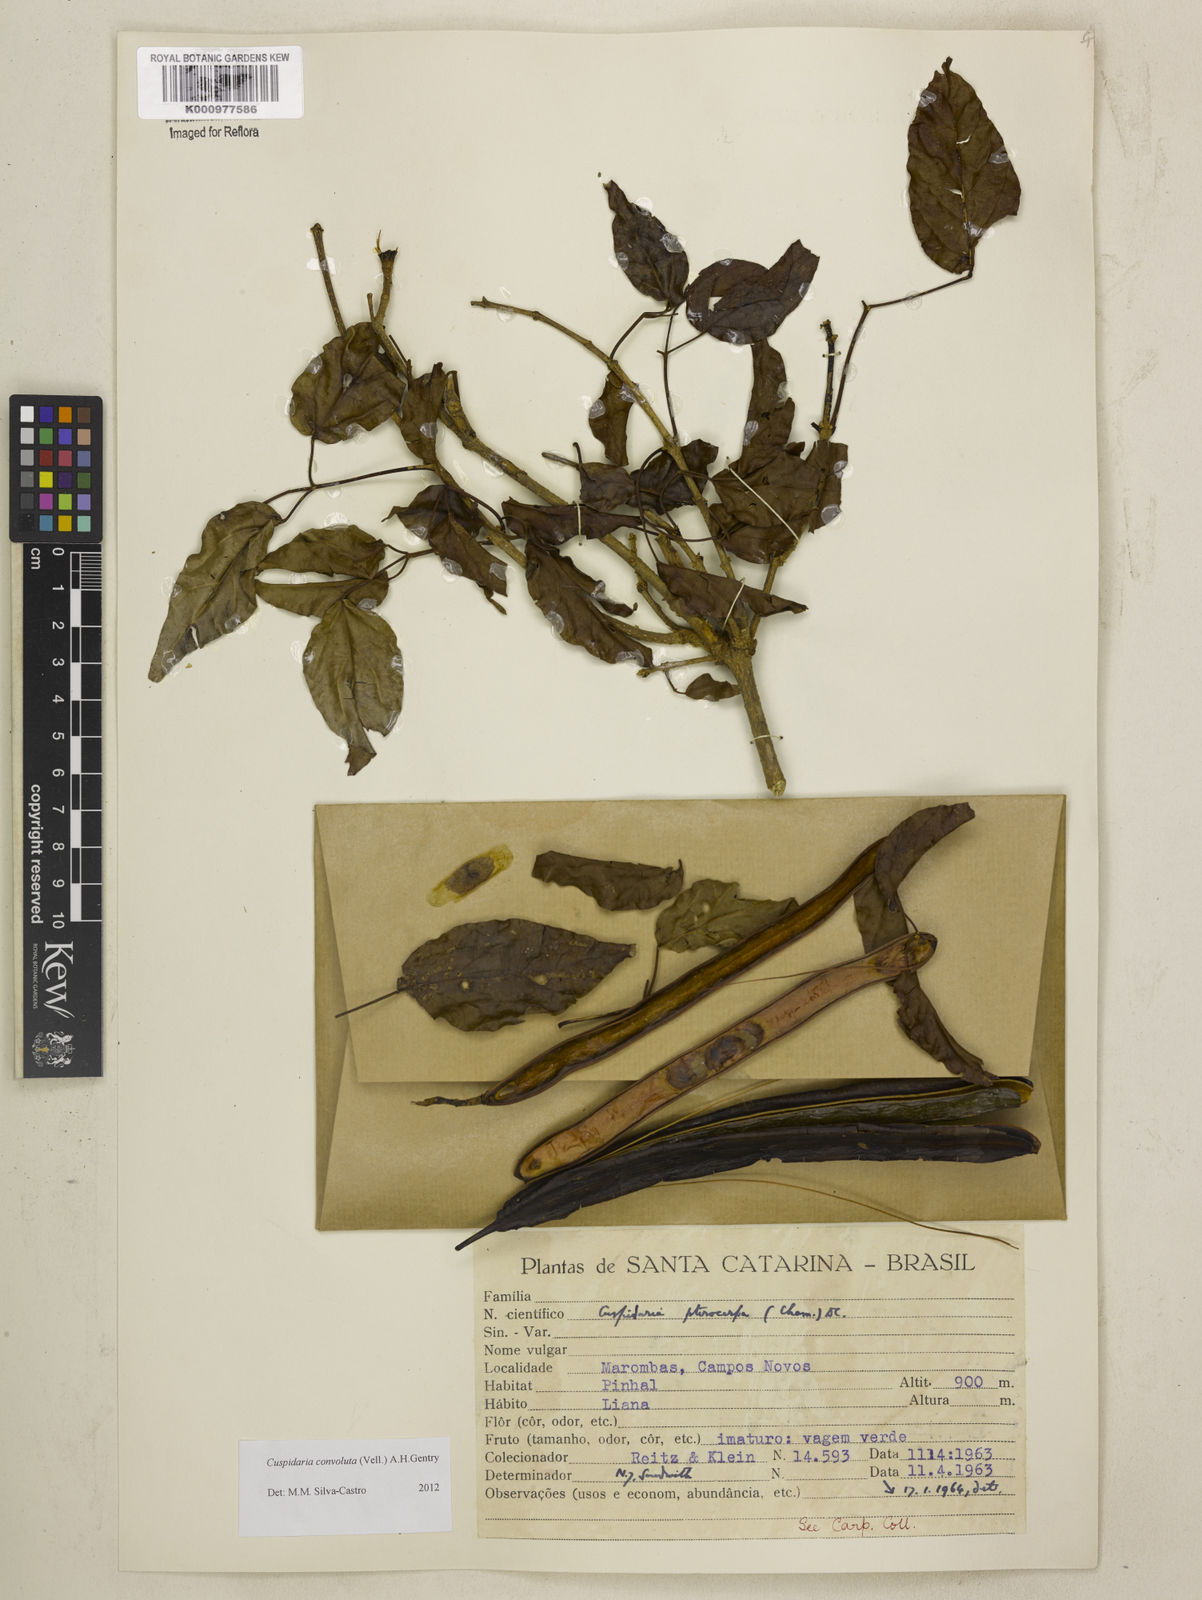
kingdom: Plantae
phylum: Tracheophyta
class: Magnoliopsida
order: Lamiales
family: Bignoniaceae
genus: Cuspidaria
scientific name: Cuspidaria convoluta
